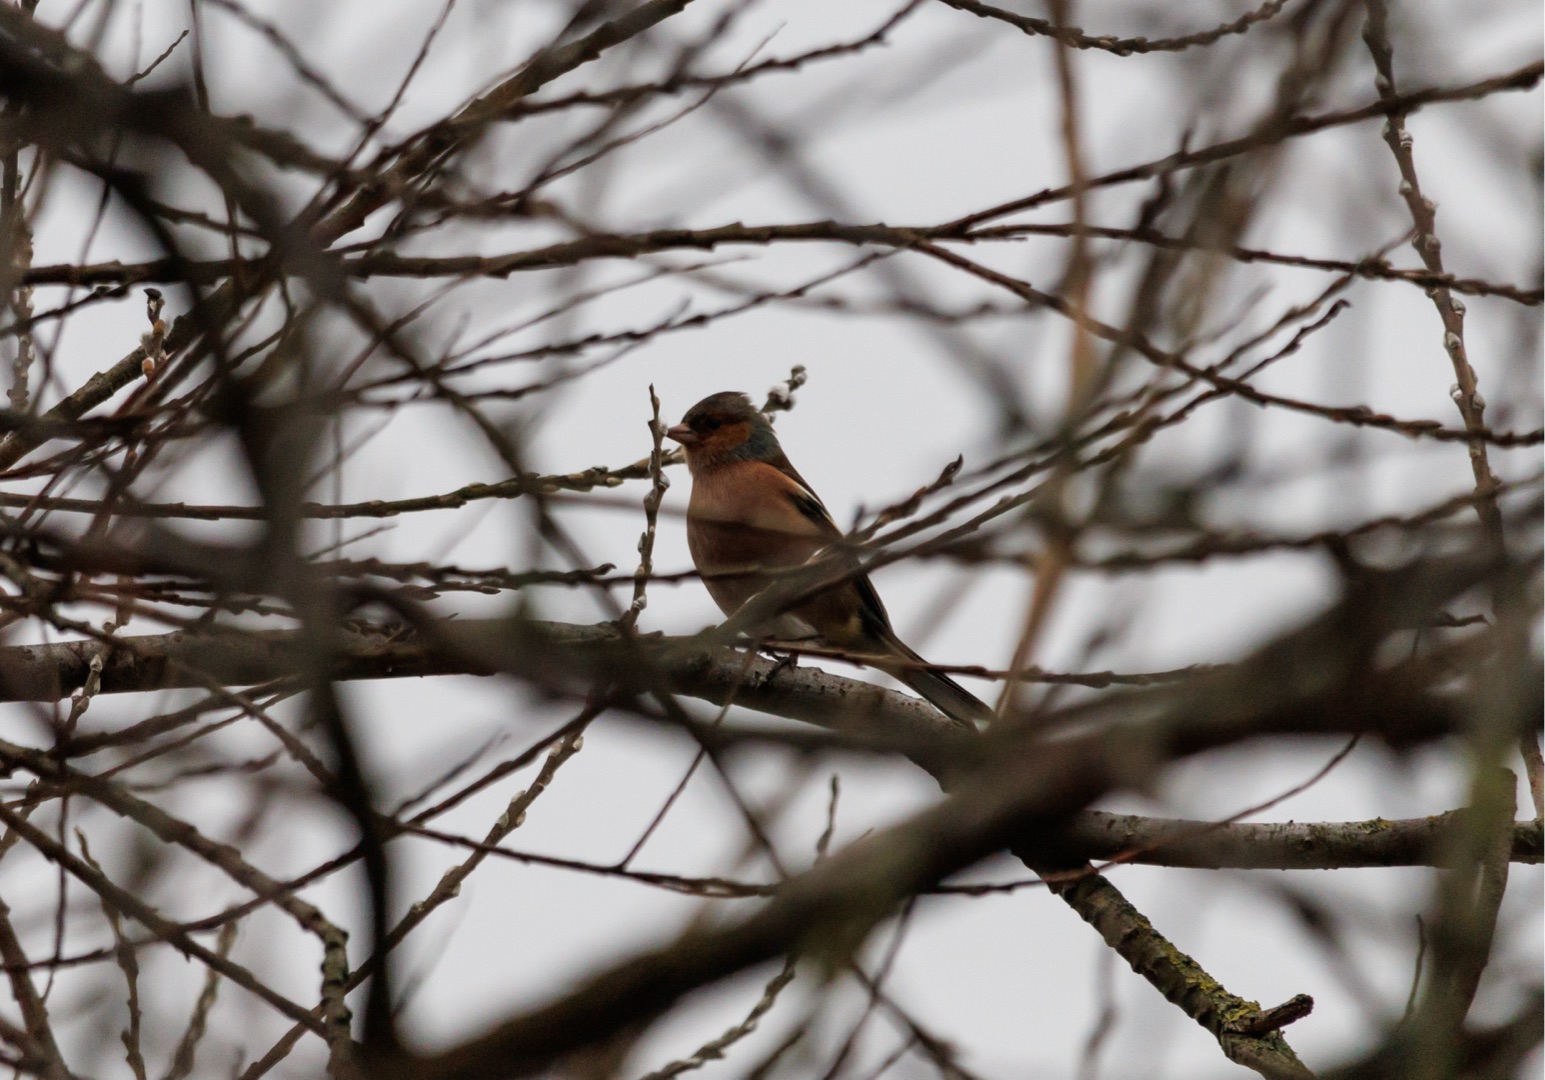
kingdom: Animalia
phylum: Chordata
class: Aves
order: Passeriformes
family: Fringillidae
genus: Fringilla
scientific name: Fringilla coelebs
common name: Bogfinke
